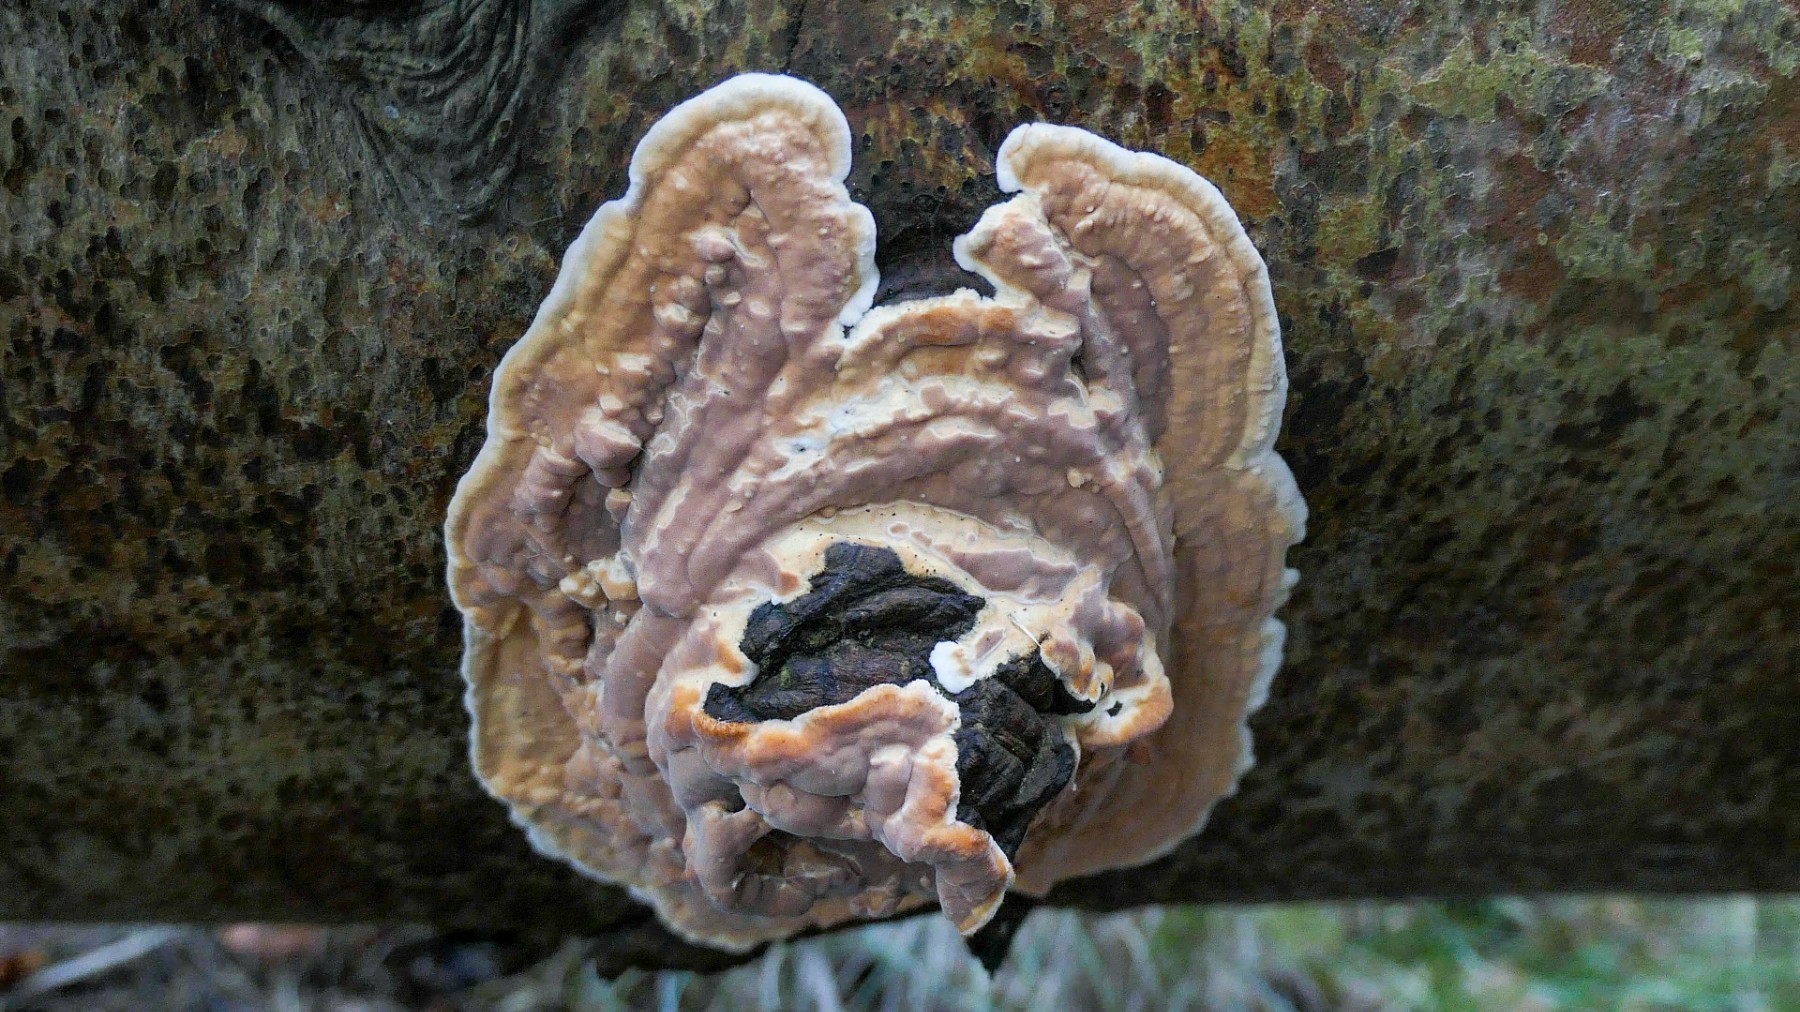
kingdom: Fungi
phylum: Basidiomycota
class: Agaricomycetes
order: Polyporales
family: Dacryobolaceae
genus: Dacryobolus
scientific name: Dacryobolus karstenii
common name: glat vulkanskorpe
